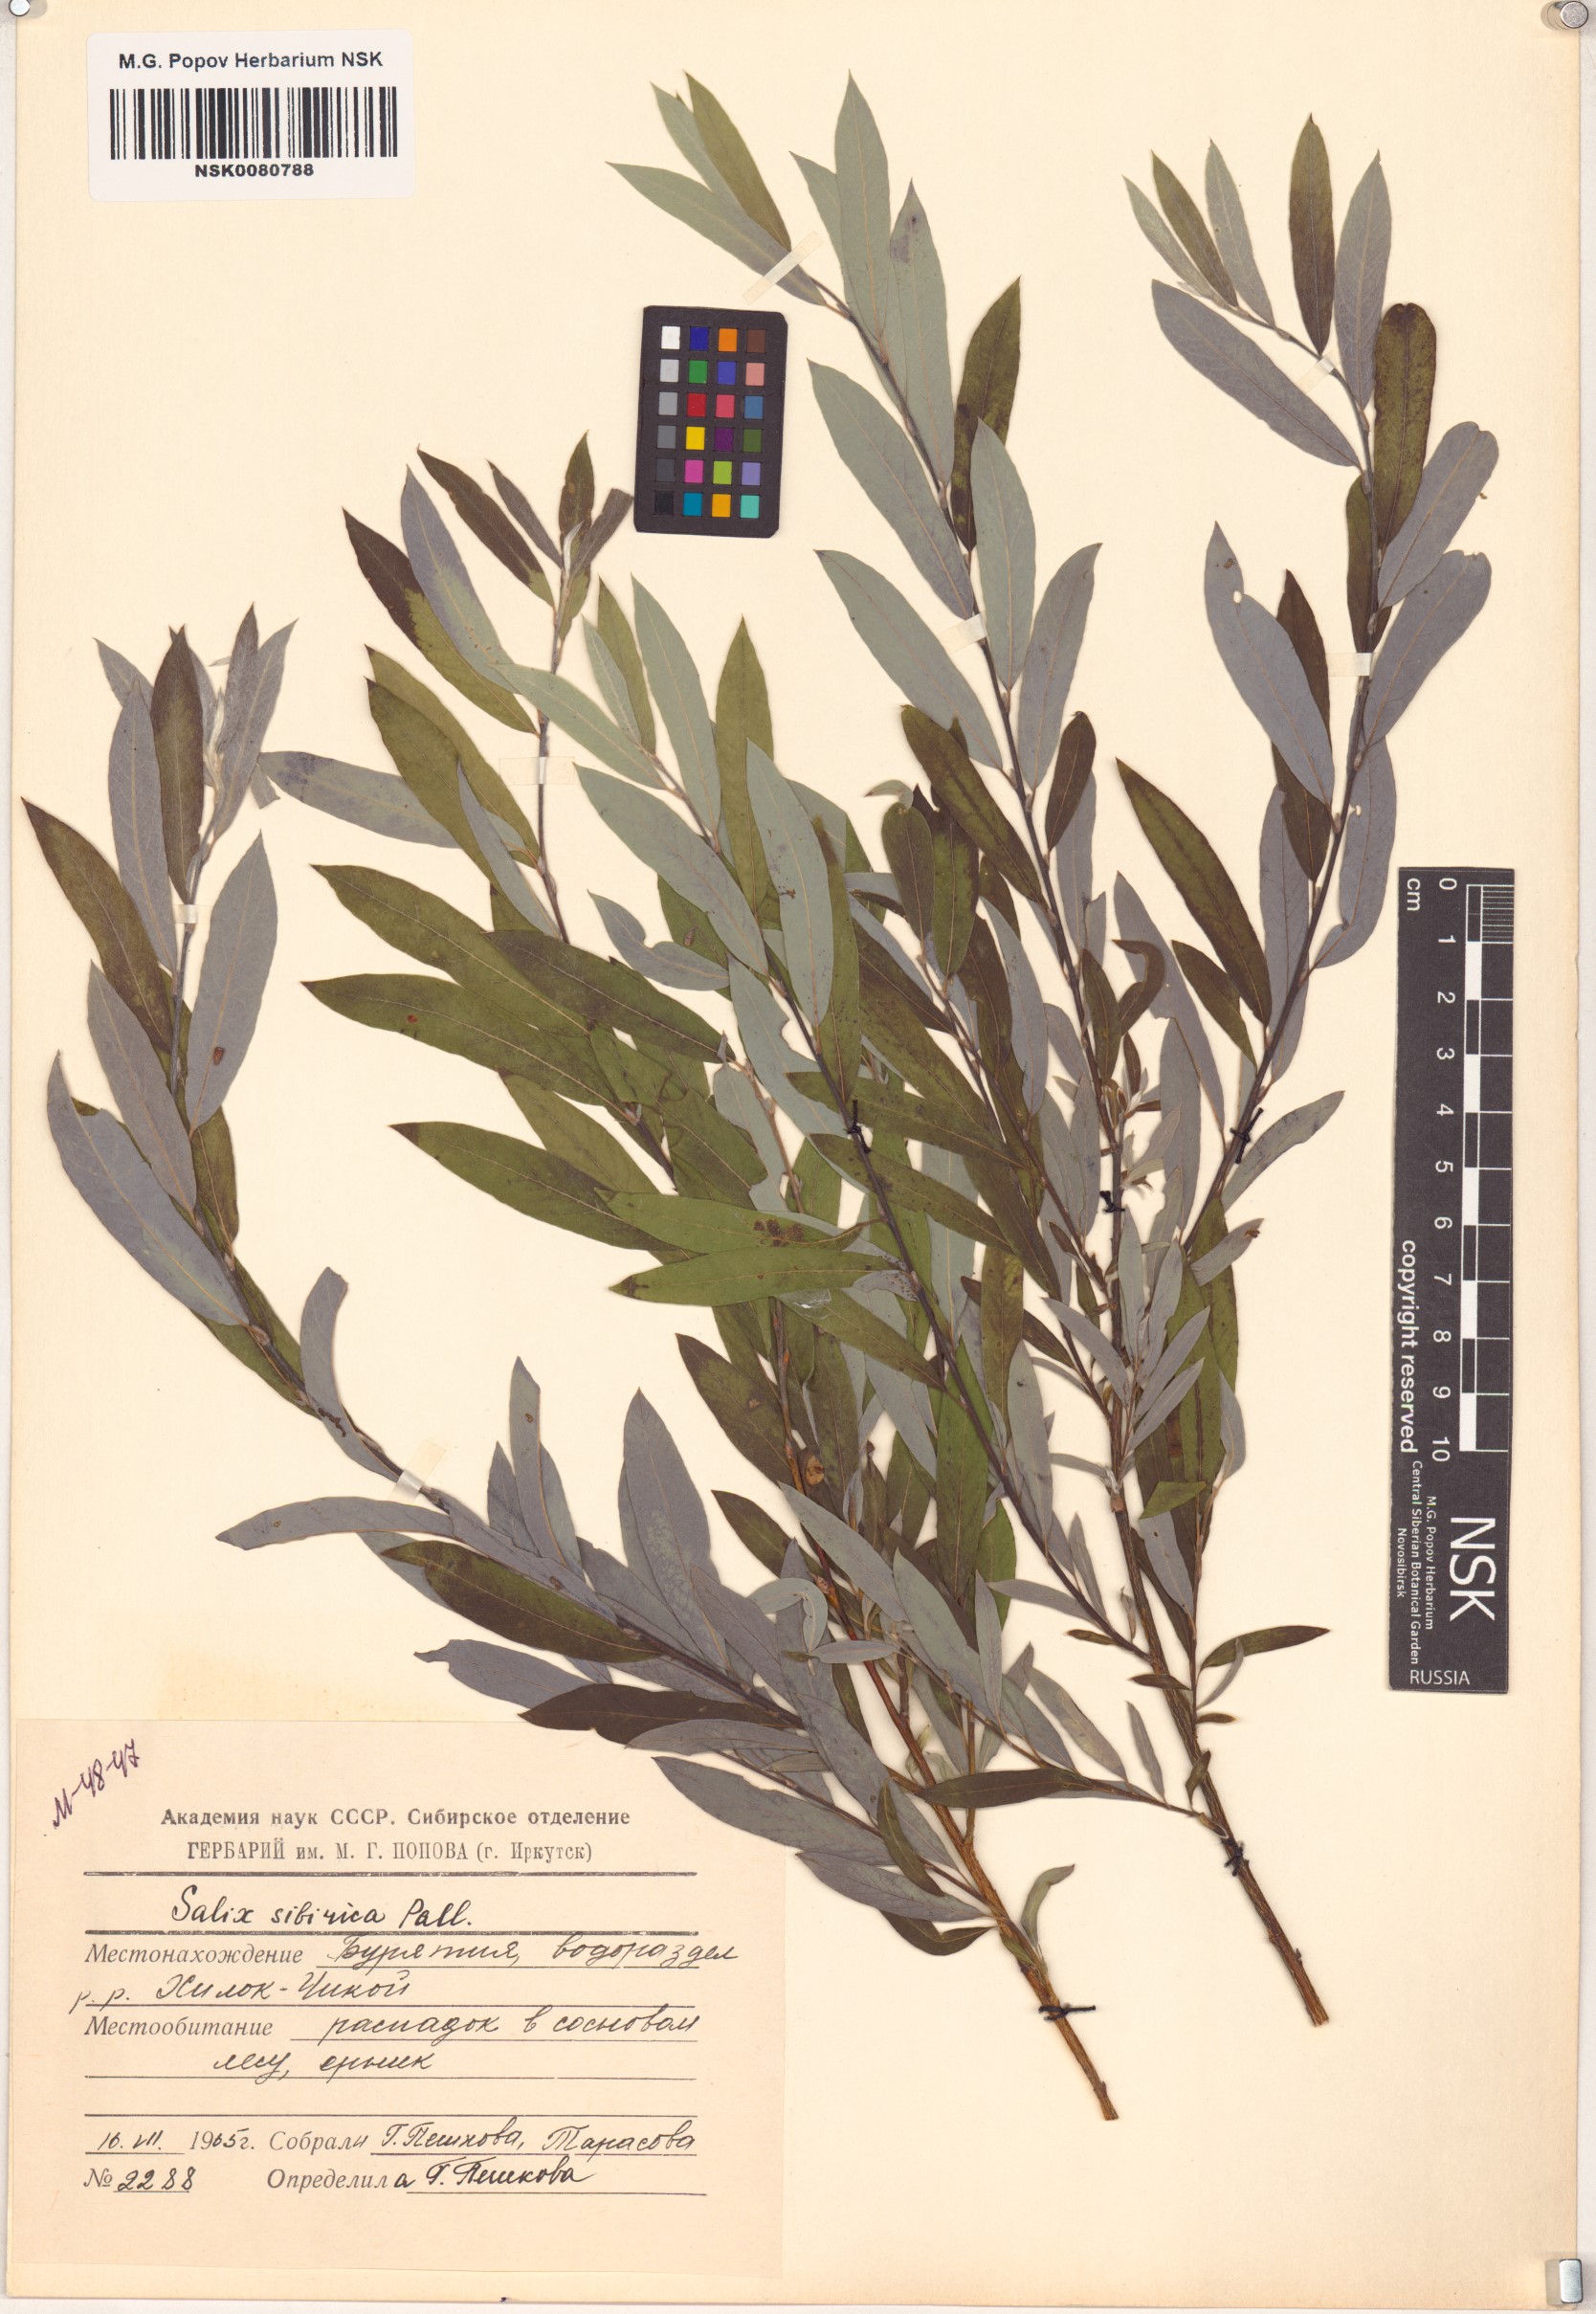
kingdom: Plantae
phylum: Tracheophyta
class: Magnoliopsida
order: Malpighiales
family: Salicaceae
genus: Salix
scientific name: Salix rosmarinifolia
